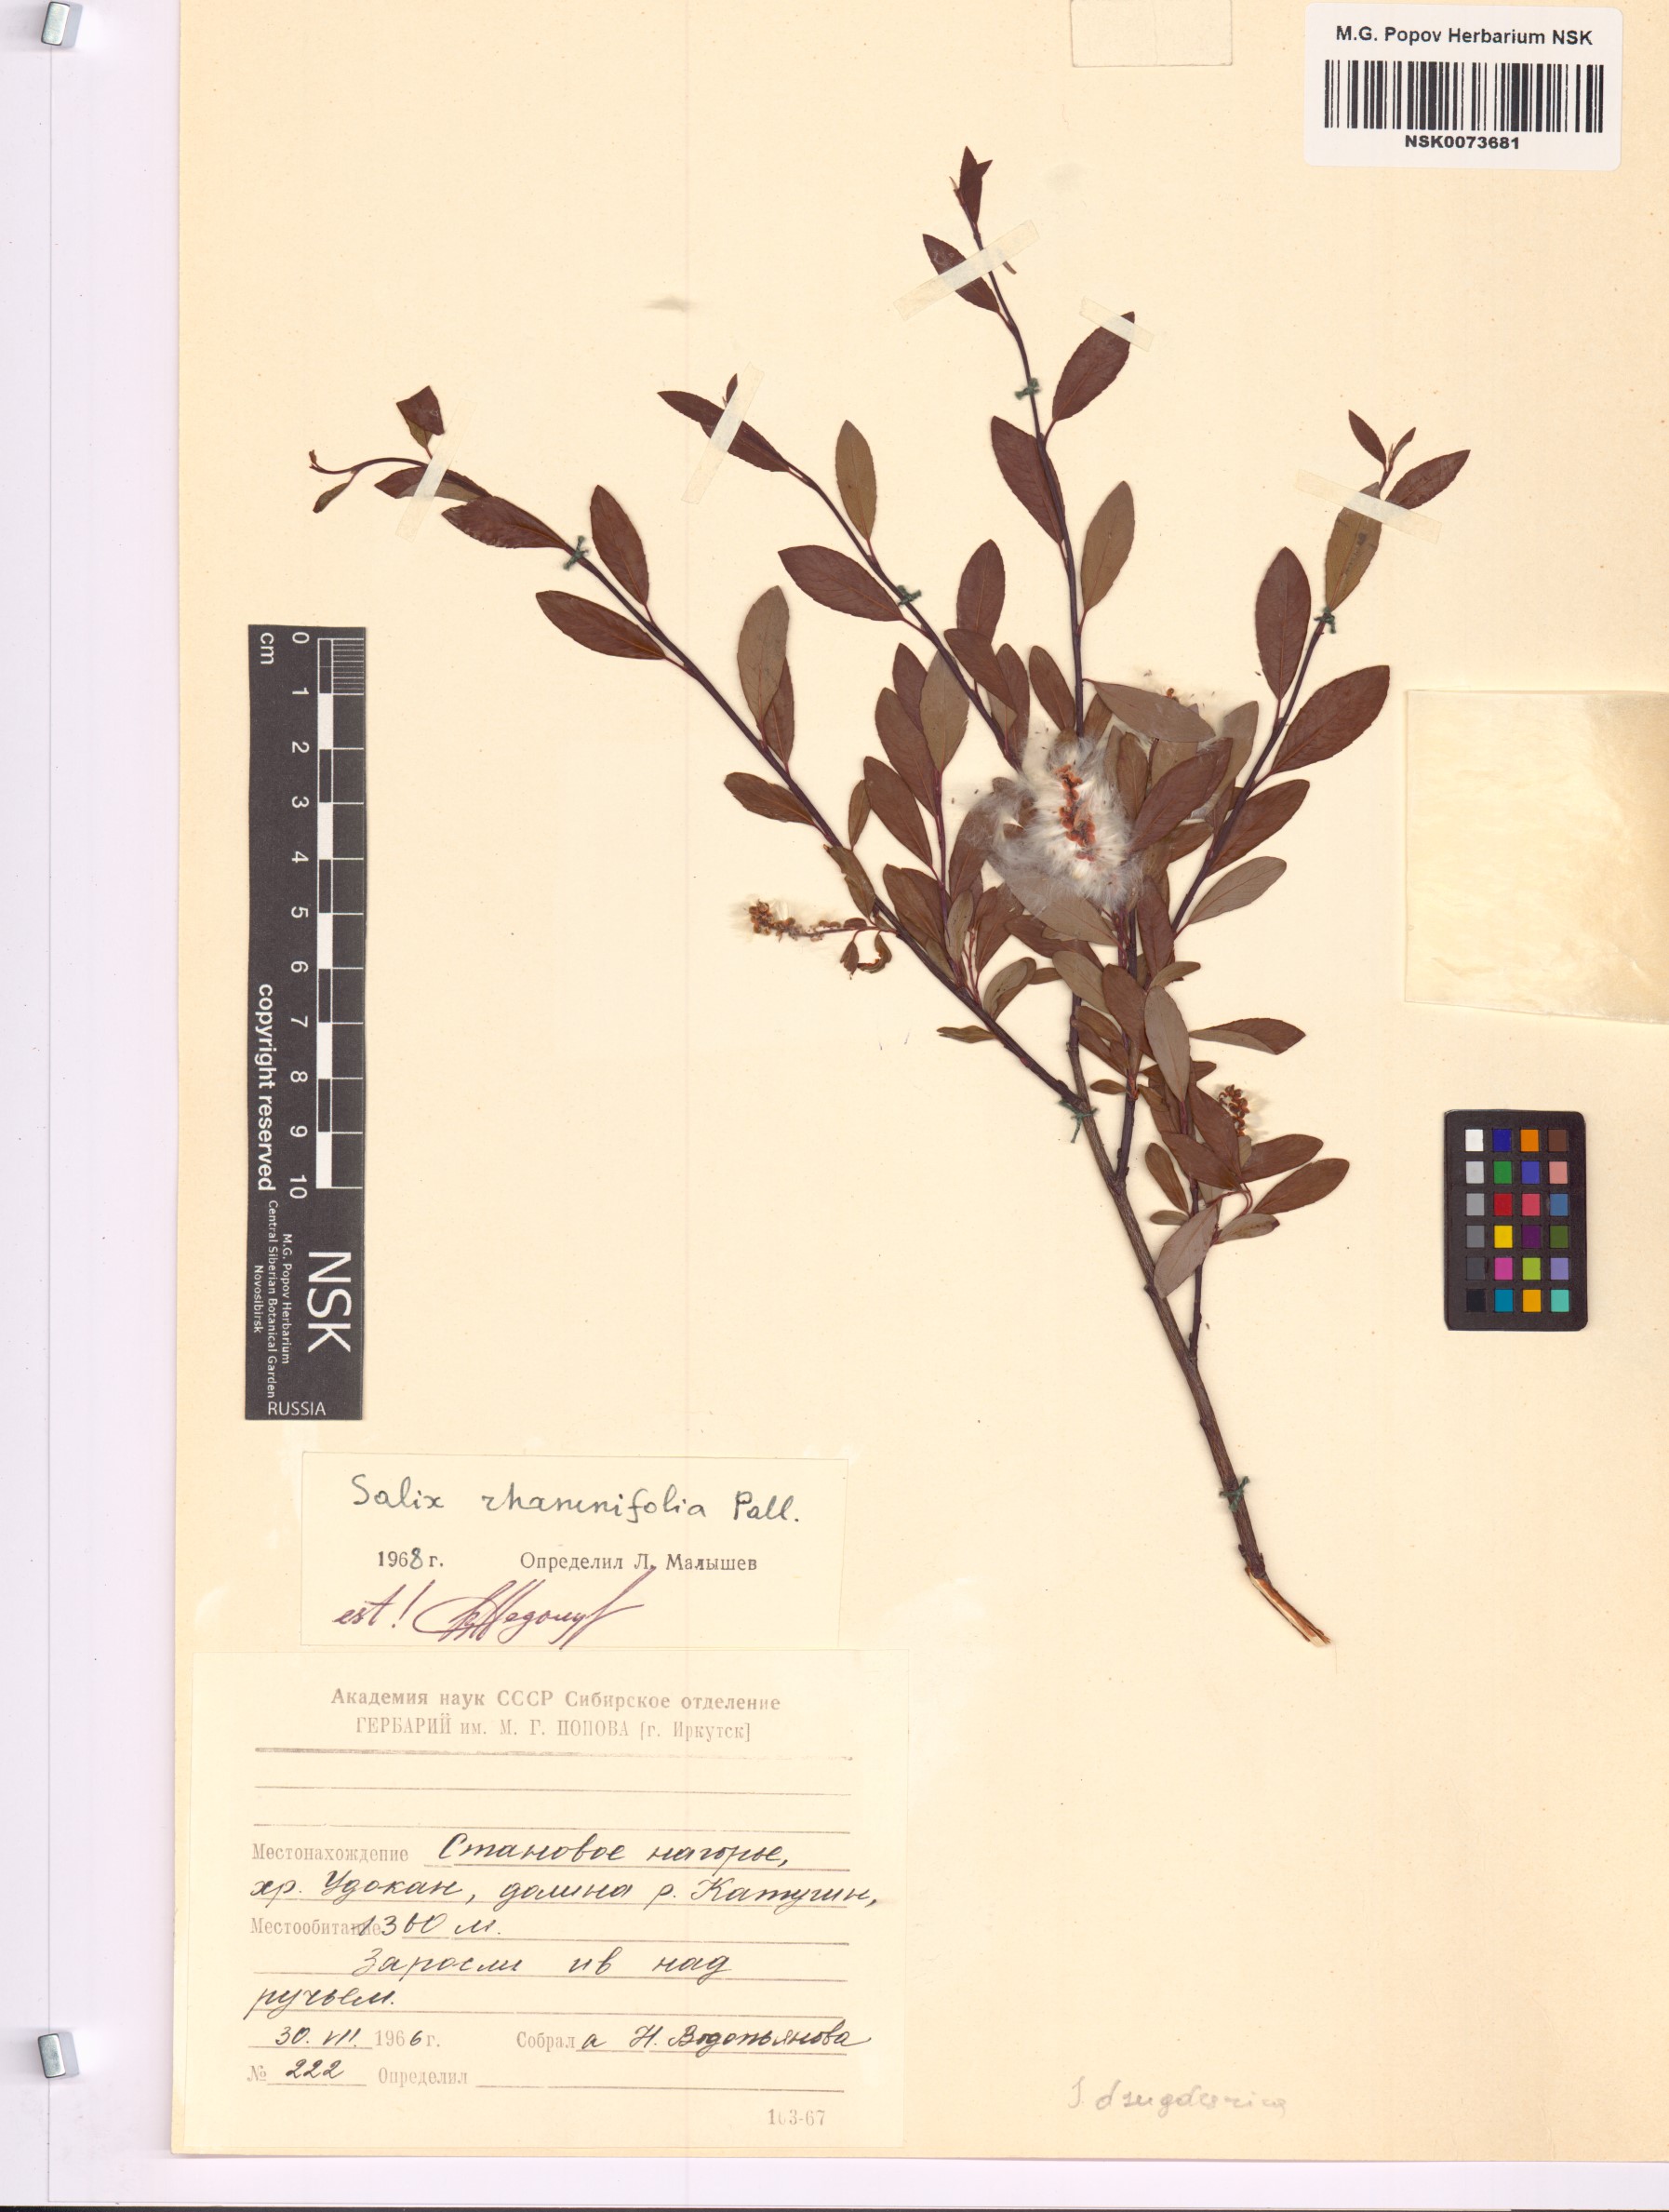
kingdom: Plantae
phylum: Tracheophyta
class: Magnoliopsida
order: Malpighiales
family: Salicaceae
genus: Salix
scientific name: Salix rhamnifolia
